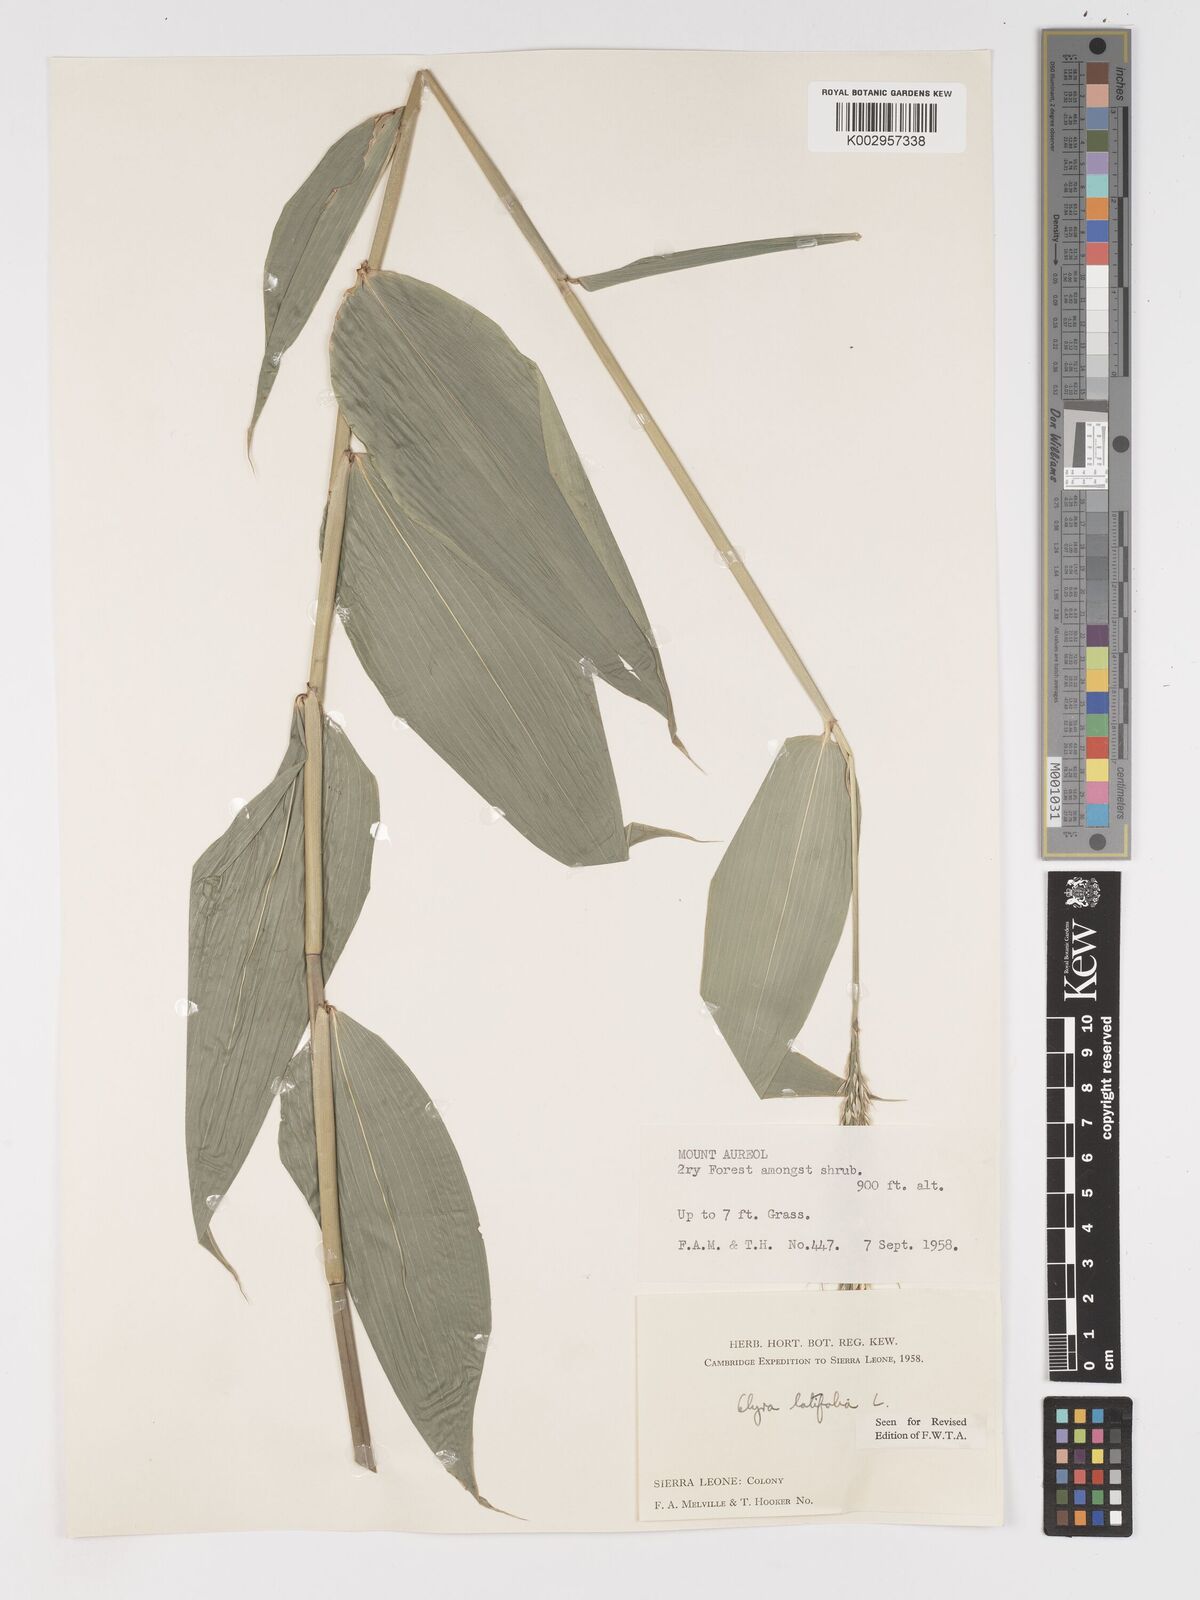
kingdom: Plantae
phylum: Tracheophyta
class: Liliopsida
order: Poales
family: Poaceae
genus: Olyra
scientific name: Olyra latifolia
